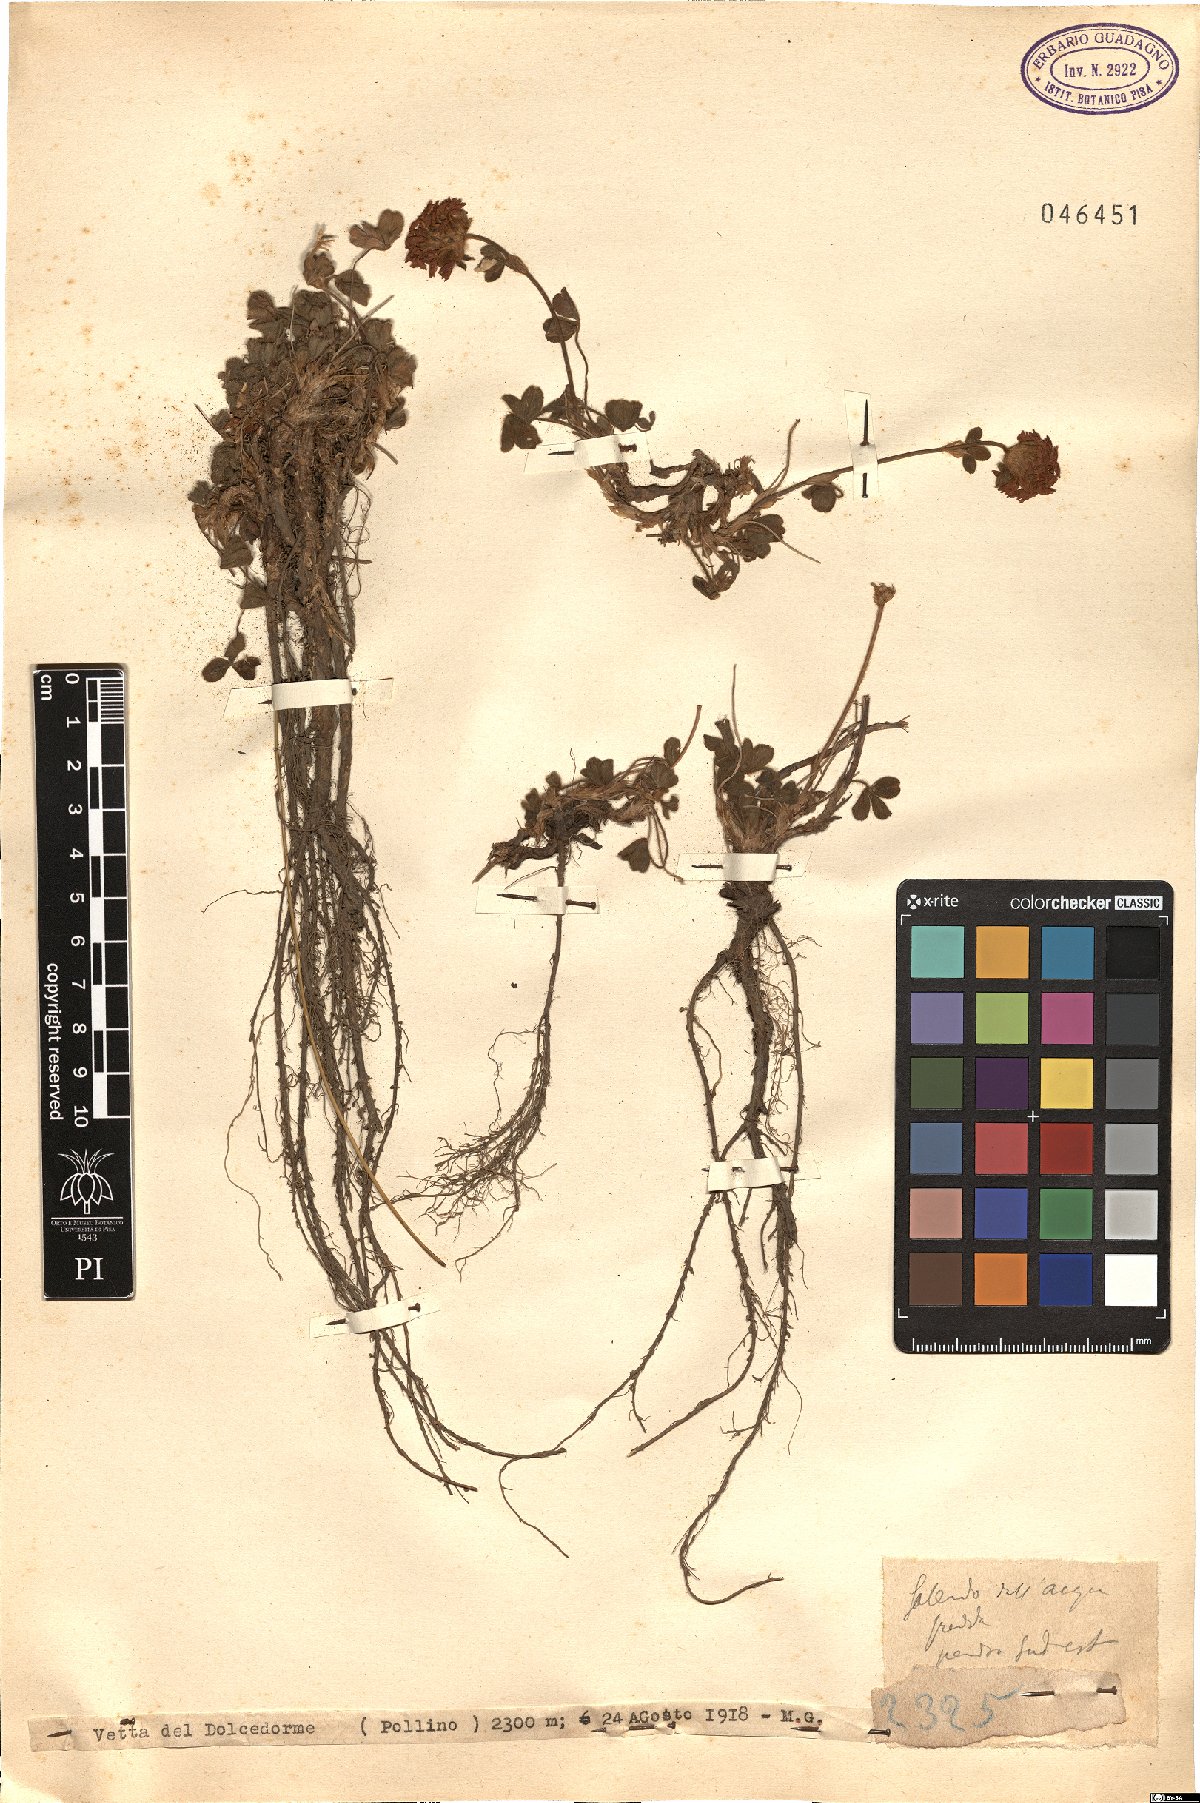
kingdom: Plantae
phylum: Tracheophyta
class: Magnoliopsida
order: Fabales
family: Fabaceae
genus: Trifolium
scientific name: Trifolium
